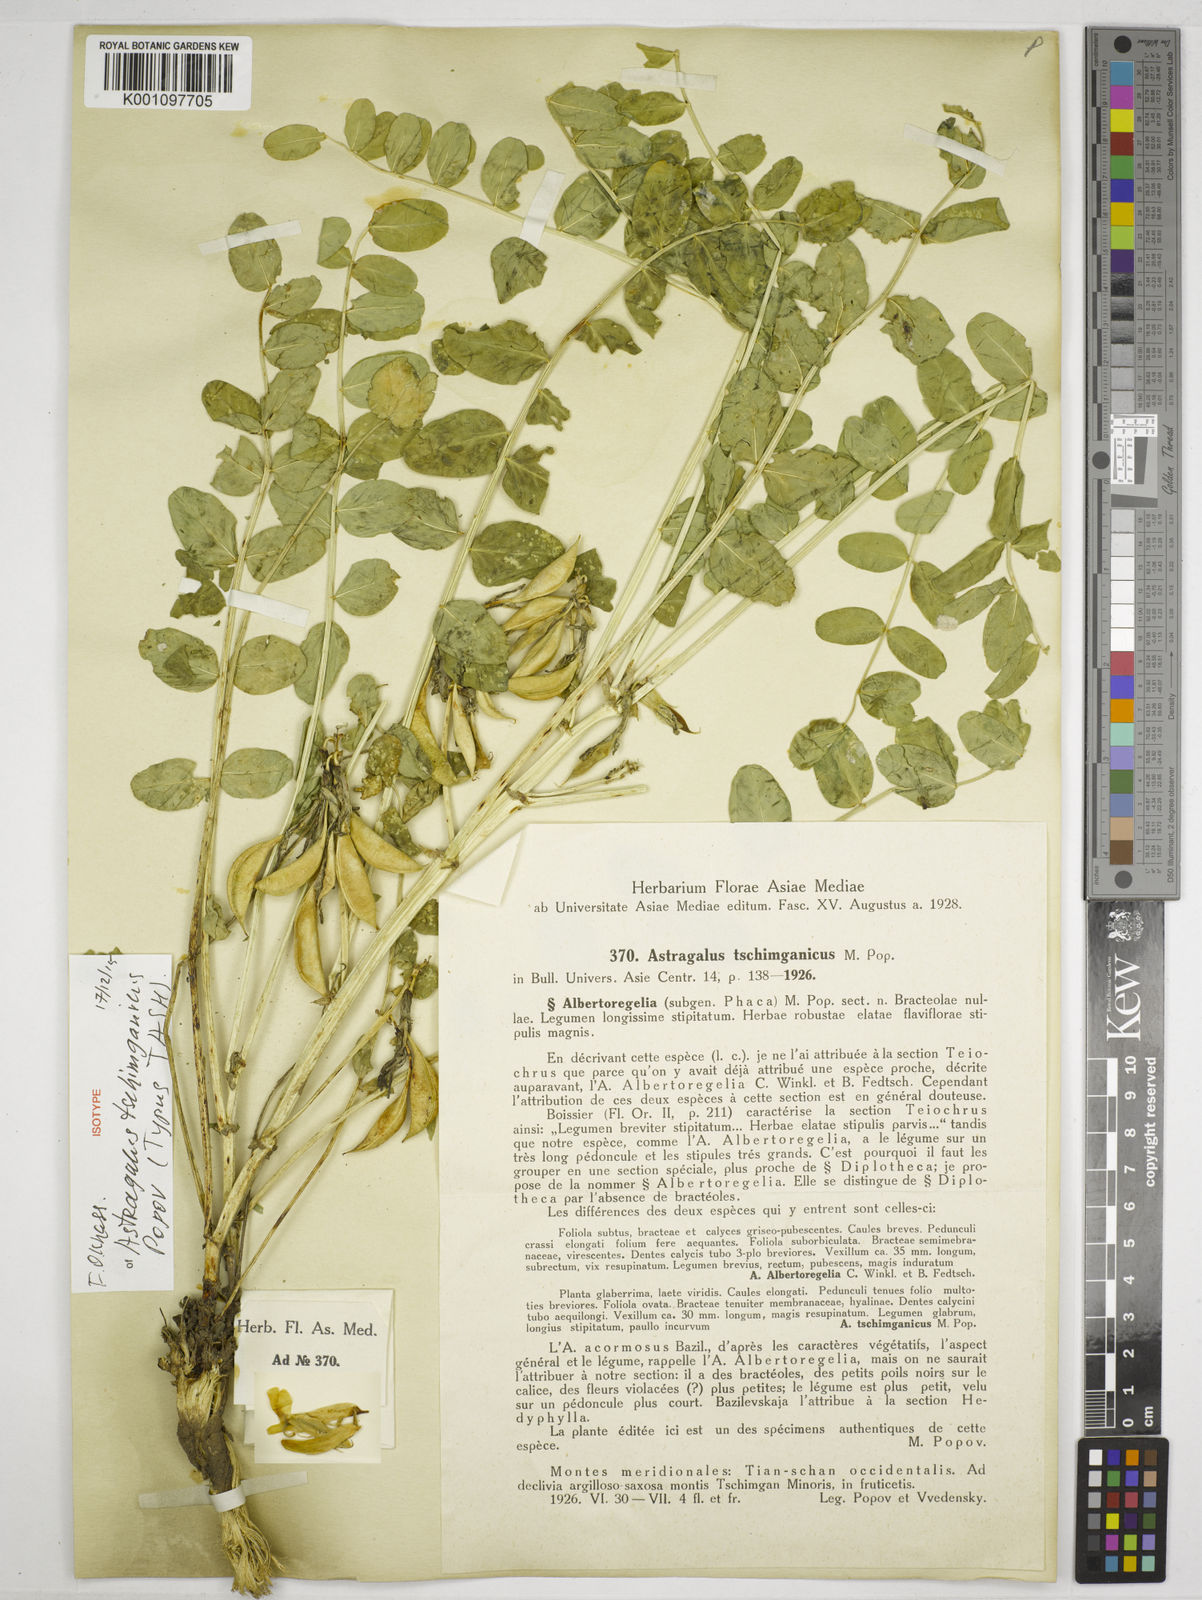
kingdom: Plantae
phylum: Tracheophyta
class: Magnoliopsida
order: Fabales
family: Fabaceae
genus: Astragalus
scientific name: Astragalus tschimganicus
